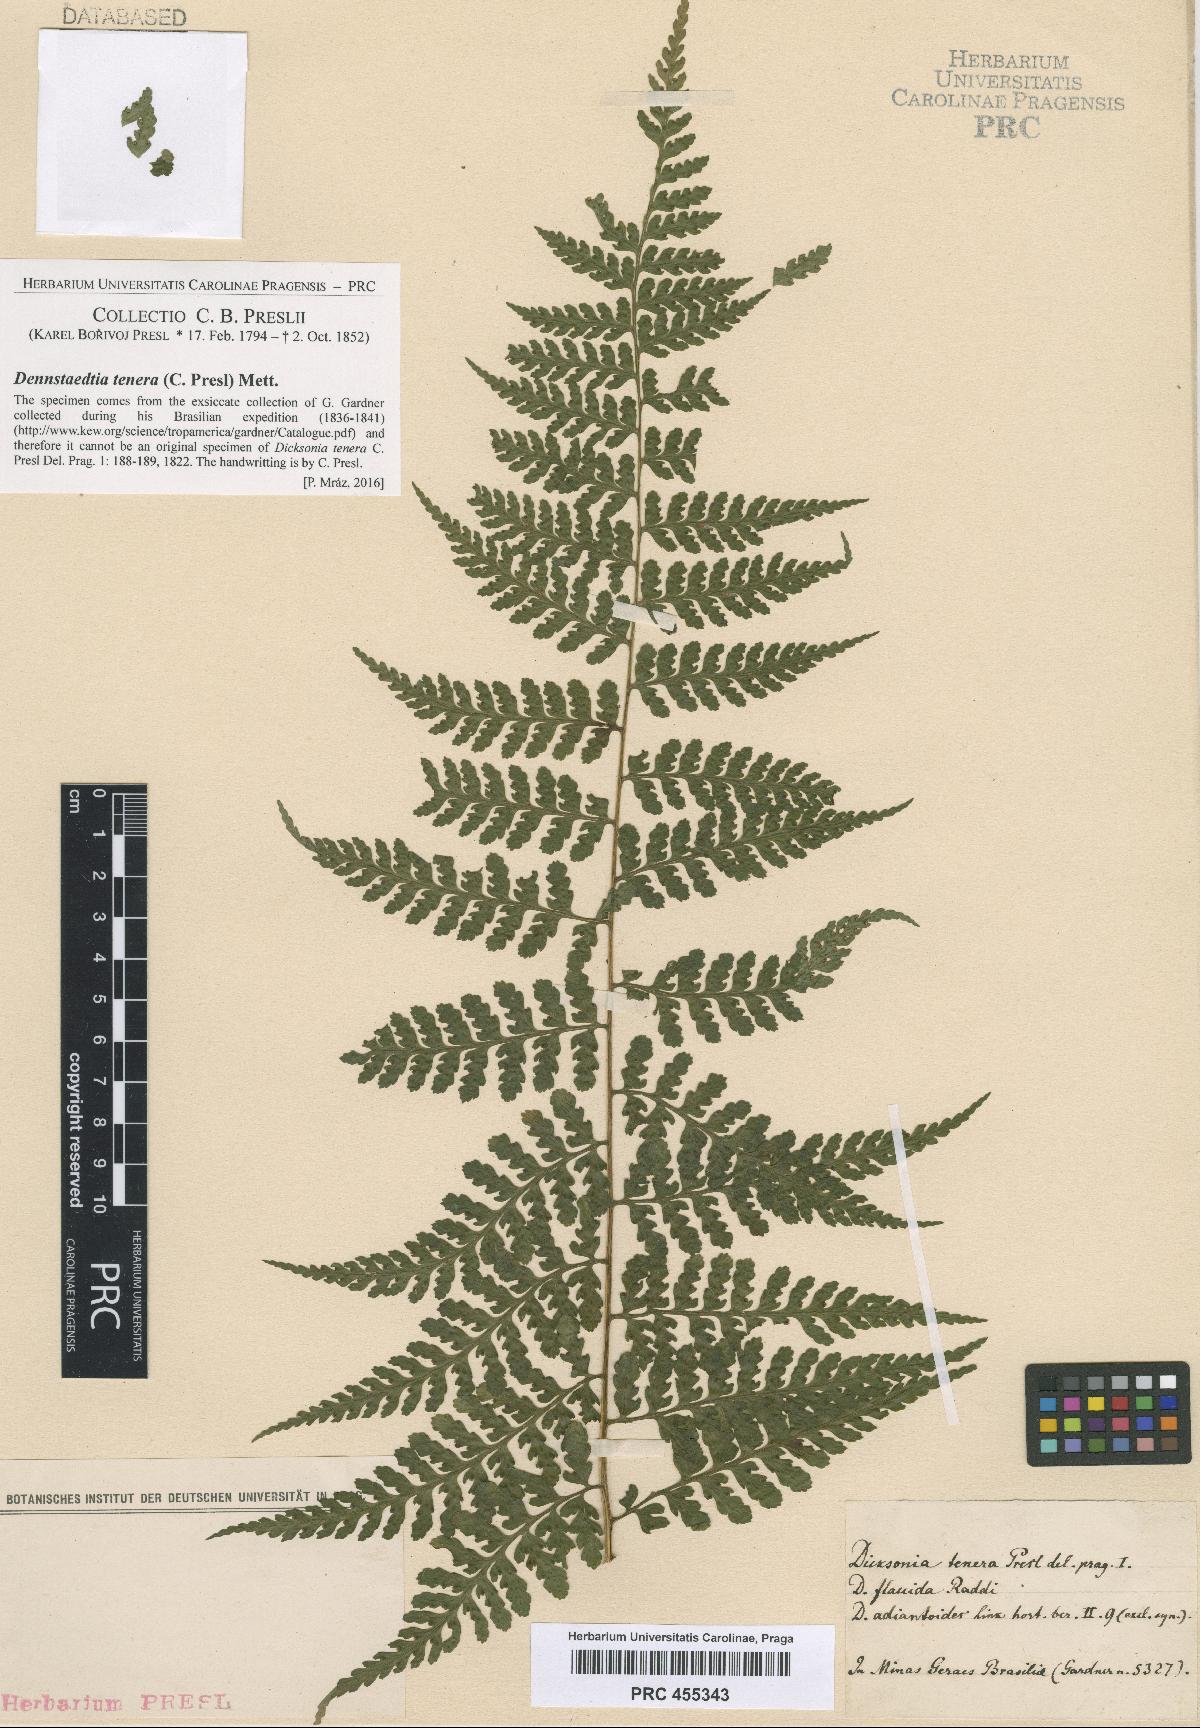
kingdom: Plantae
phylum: Tracheophyta
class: Polypodiopsida
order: Polypodiales
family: Dennstaedtiaceae
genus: Mucura
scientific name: Mucura globulifera
